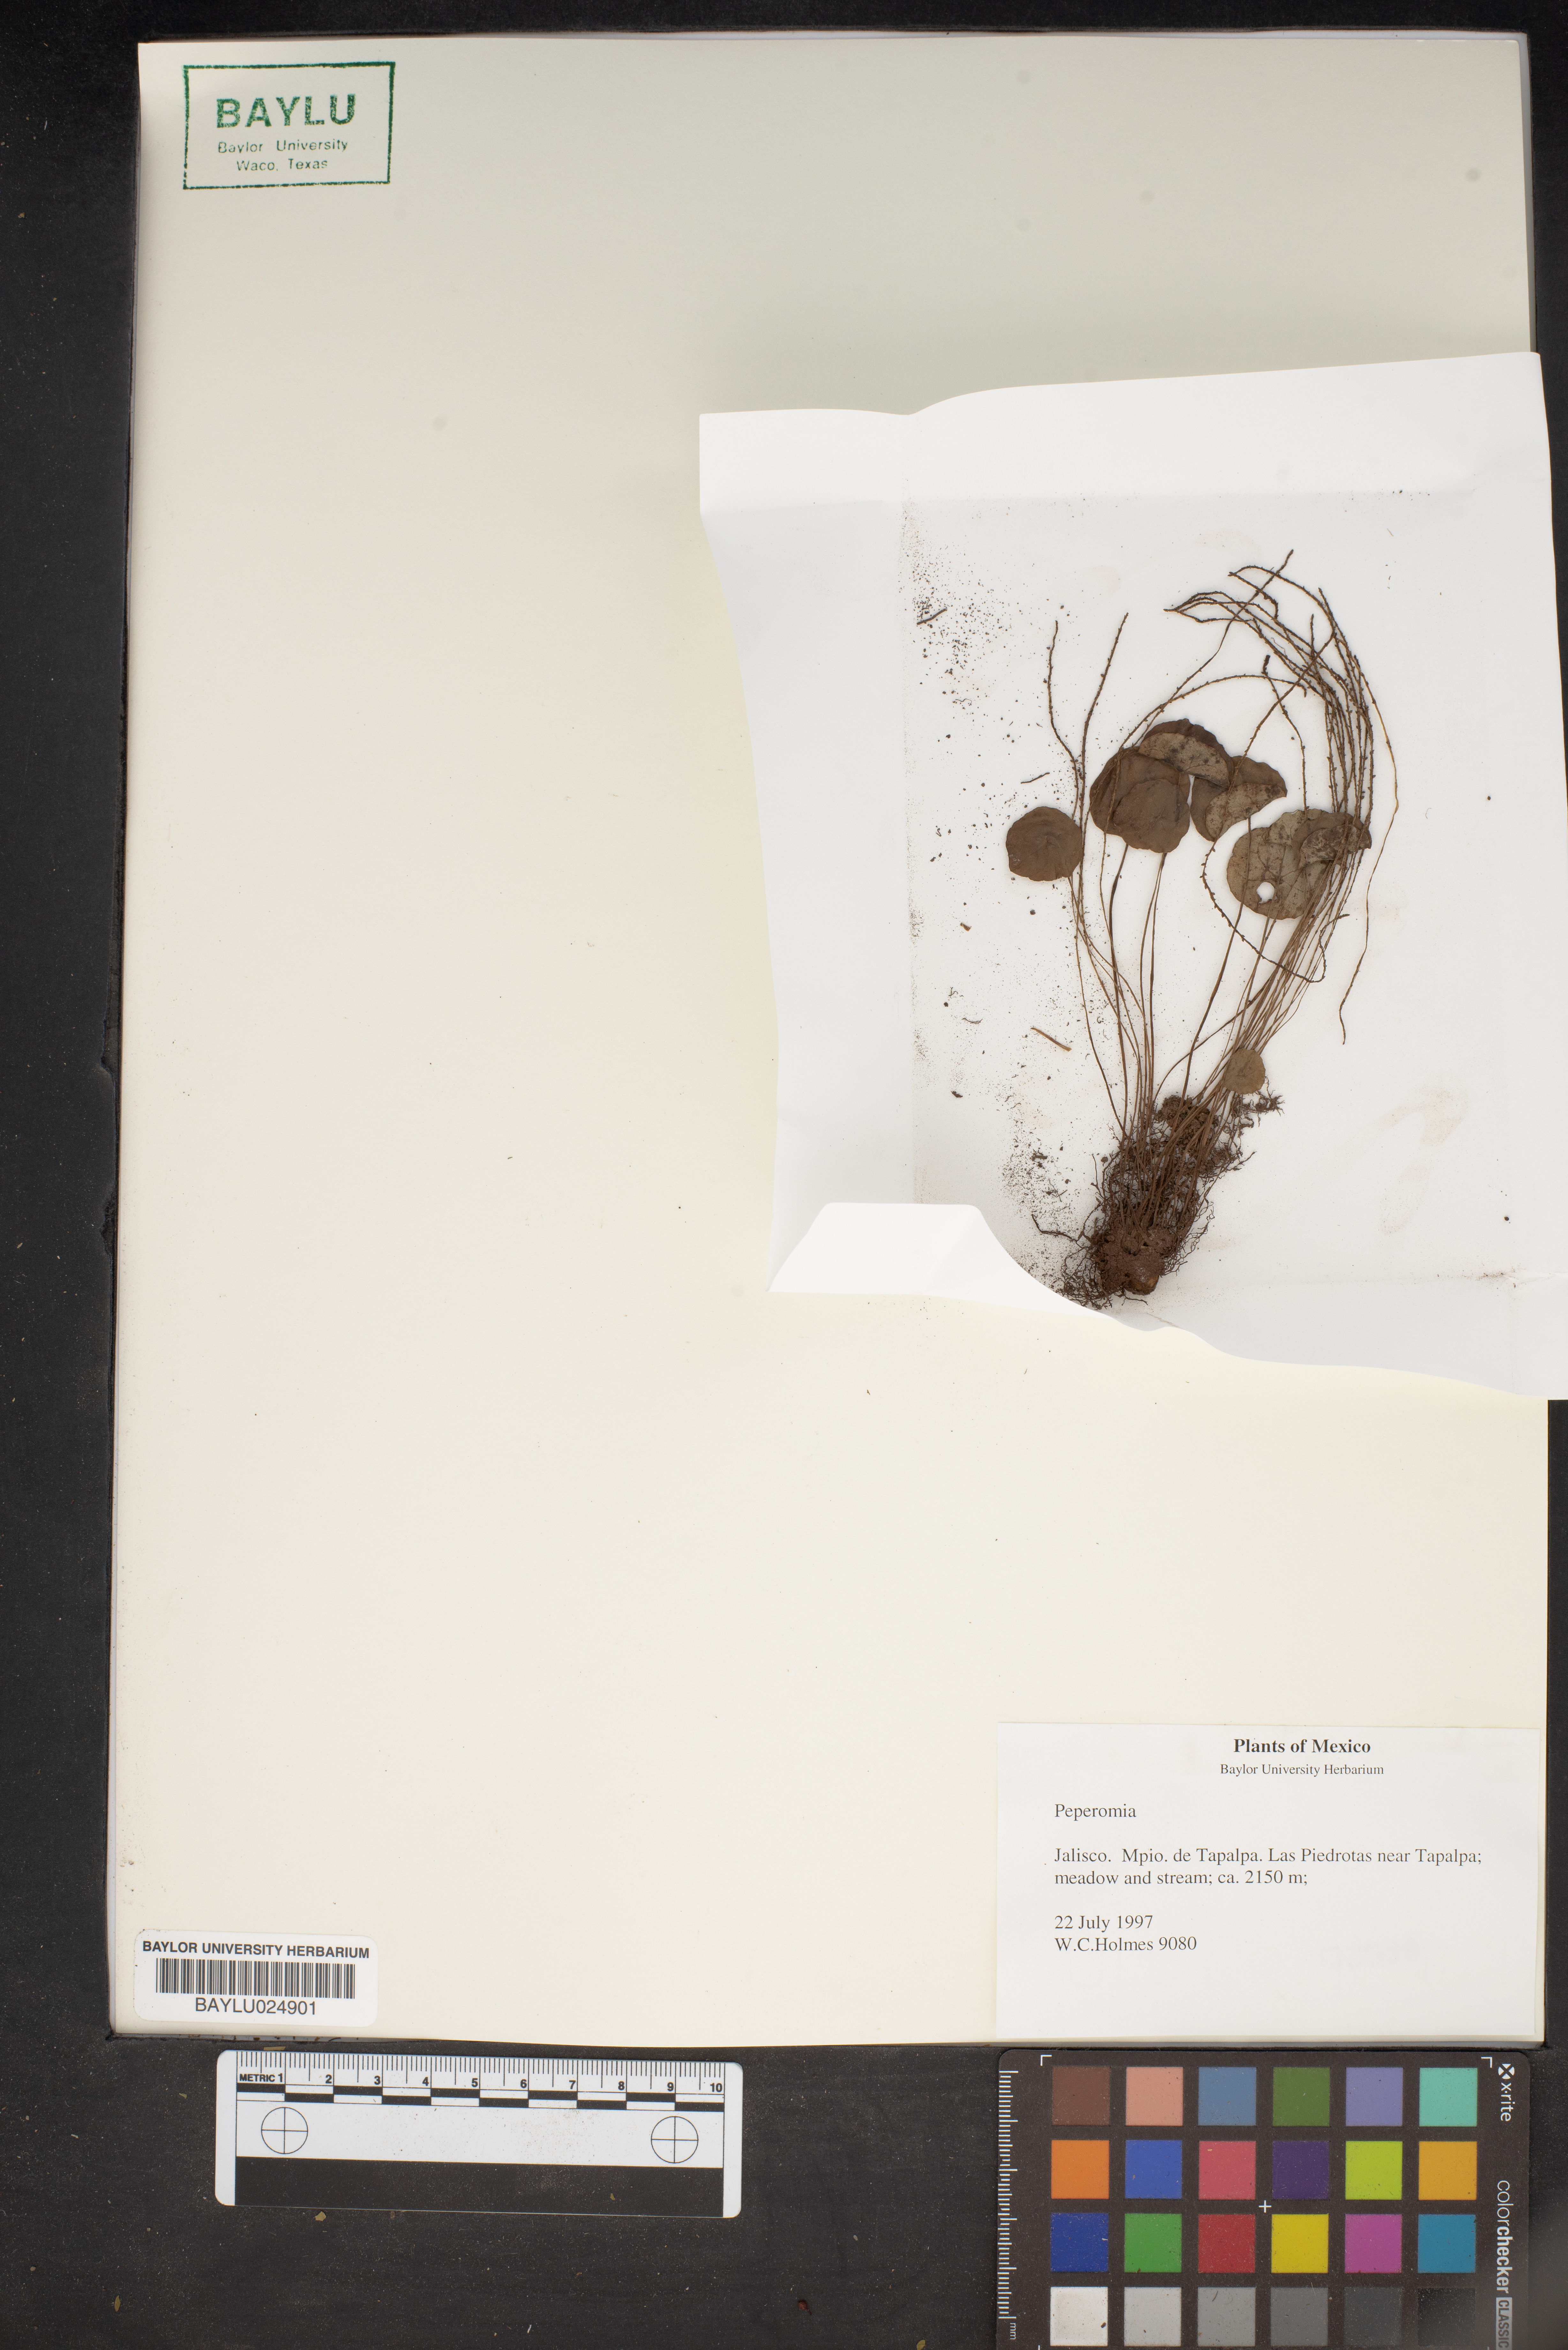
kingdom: Plantae
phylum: Tracheophyta
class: Magnoliopsida
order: Piperales
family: Piperaceae
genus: Peperomia
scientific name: Peperomia
